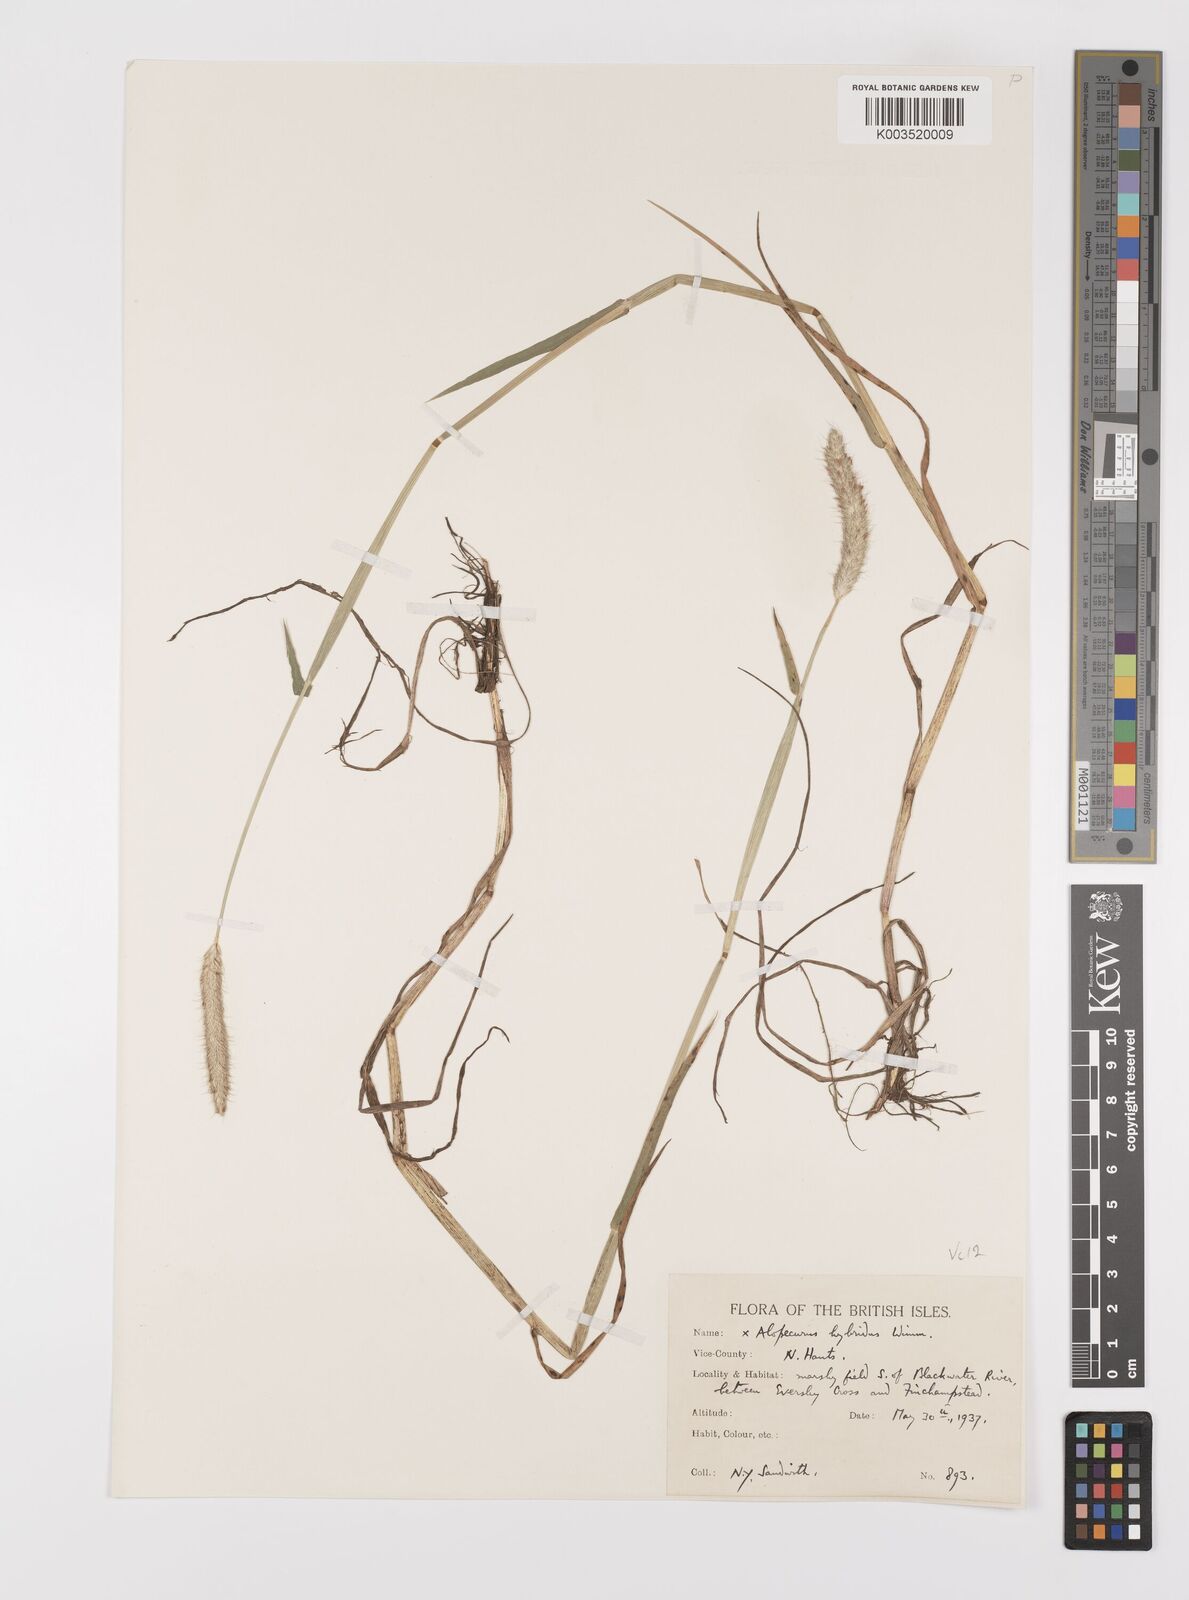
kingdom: Plantae
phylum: Tracheophyta
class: Liliopsida
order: Poales
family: Poaceae
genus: Alopecurus
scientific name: Alopecurus brachystylus
